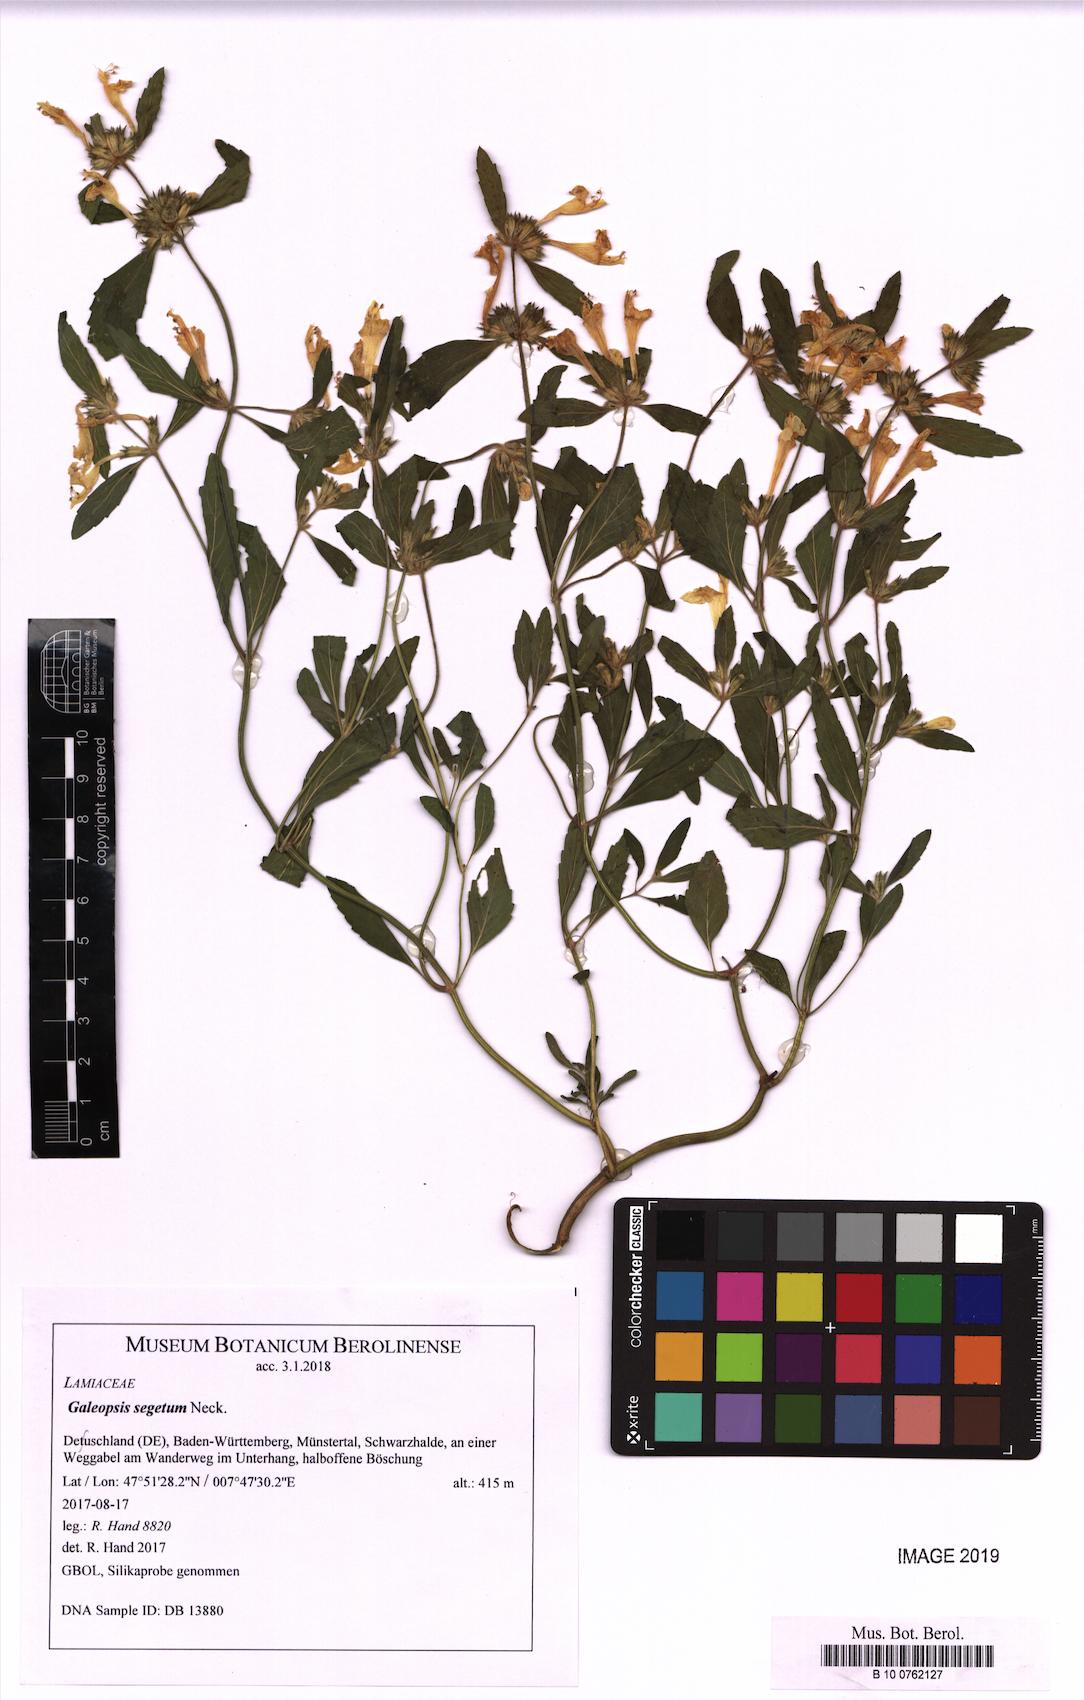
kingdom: Plantae
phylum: Tracheophyta
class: Magnoliopsida
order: Lamiales
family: Lamiaceae
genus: Galeopsis
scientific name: Galeopsis segetum
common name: Downy hemp-nettle
